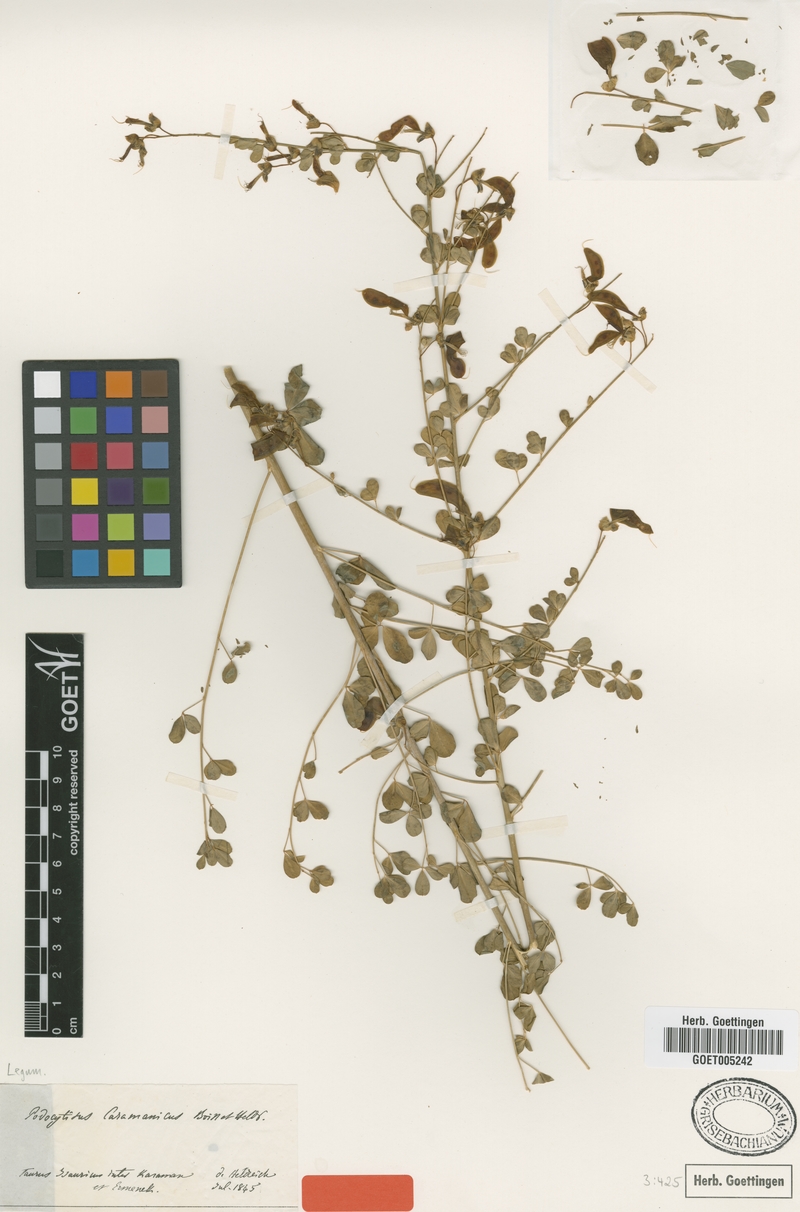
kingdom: Plantae
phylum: Tracheophyta
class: Magnoliopsida
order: Fabales
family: Fabaceae
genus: Podocytisus
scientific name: Podocytisus caramanicus
